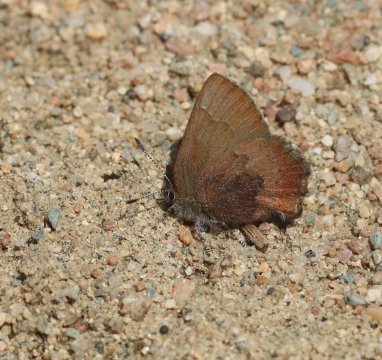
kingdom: Animalia
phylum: Arthropoda
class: Insecta
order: Lepidoptera
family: Lycaenidae
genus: Incisalia
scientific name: Incisalia irioides
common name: Brown Elfin
